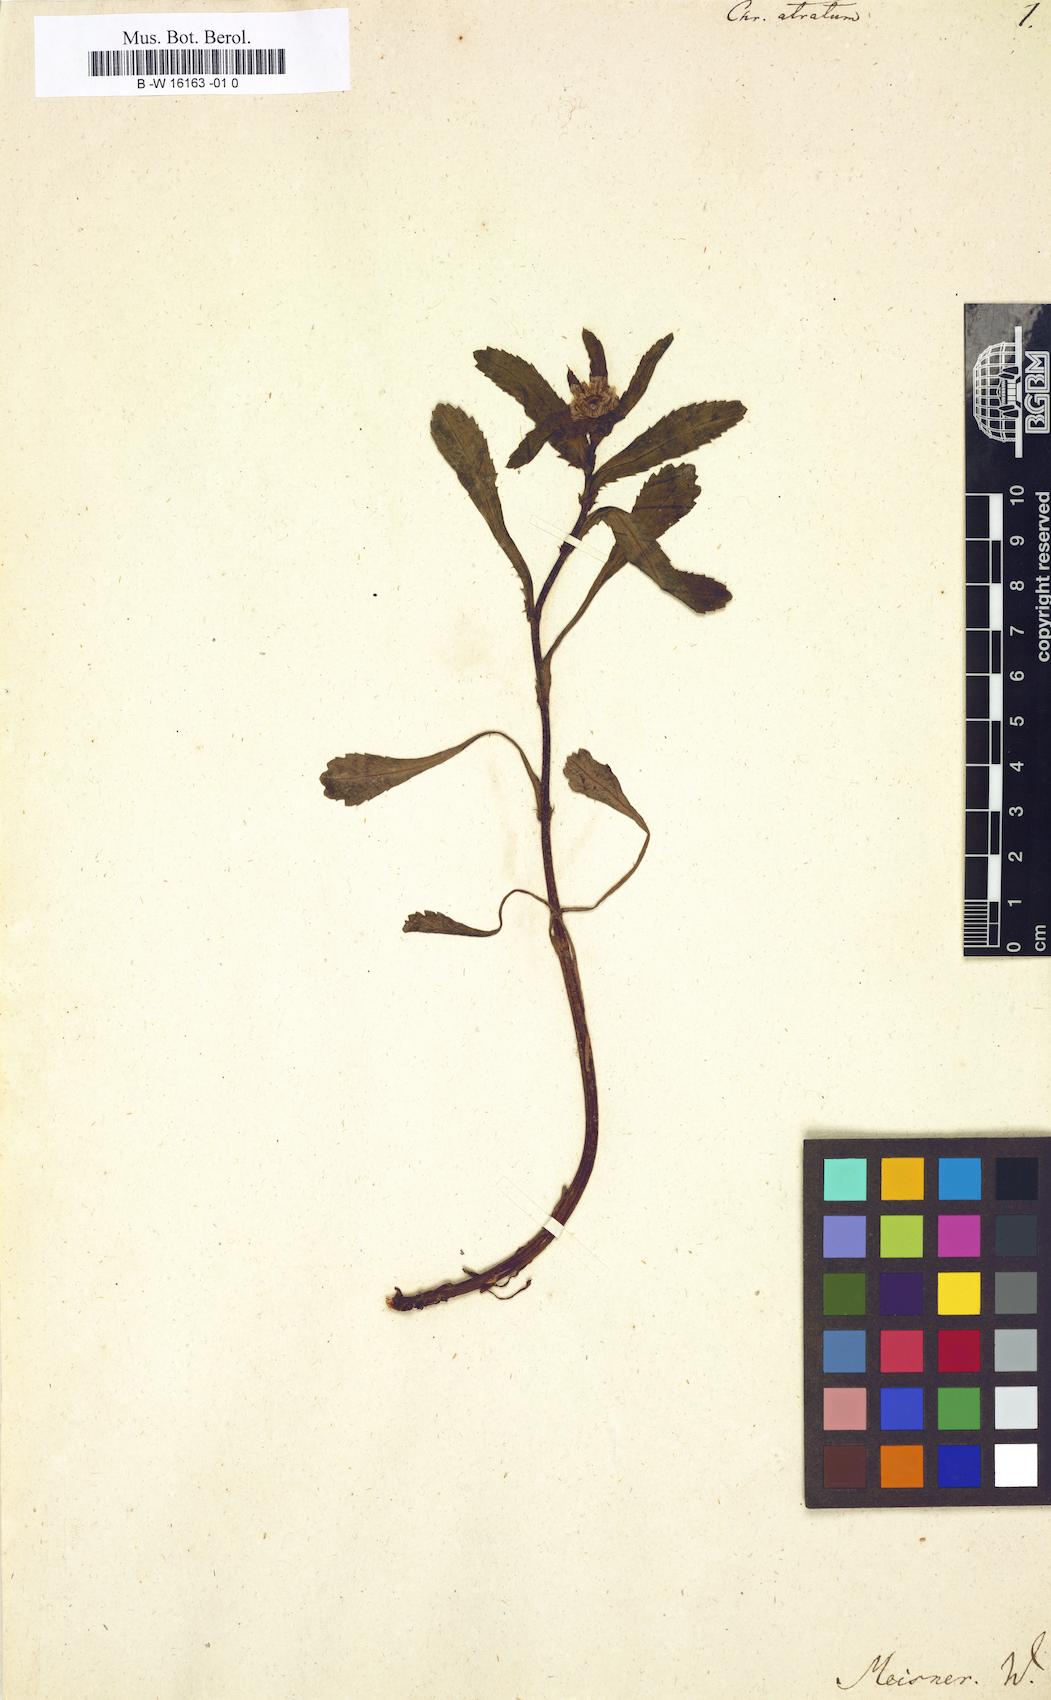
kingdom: Plantae
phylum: Tracheophyta
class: Magnoliopsida
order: Asterales
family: Asteraceae
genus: Chrysanthemum
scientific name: Chrysanthemum atratum
